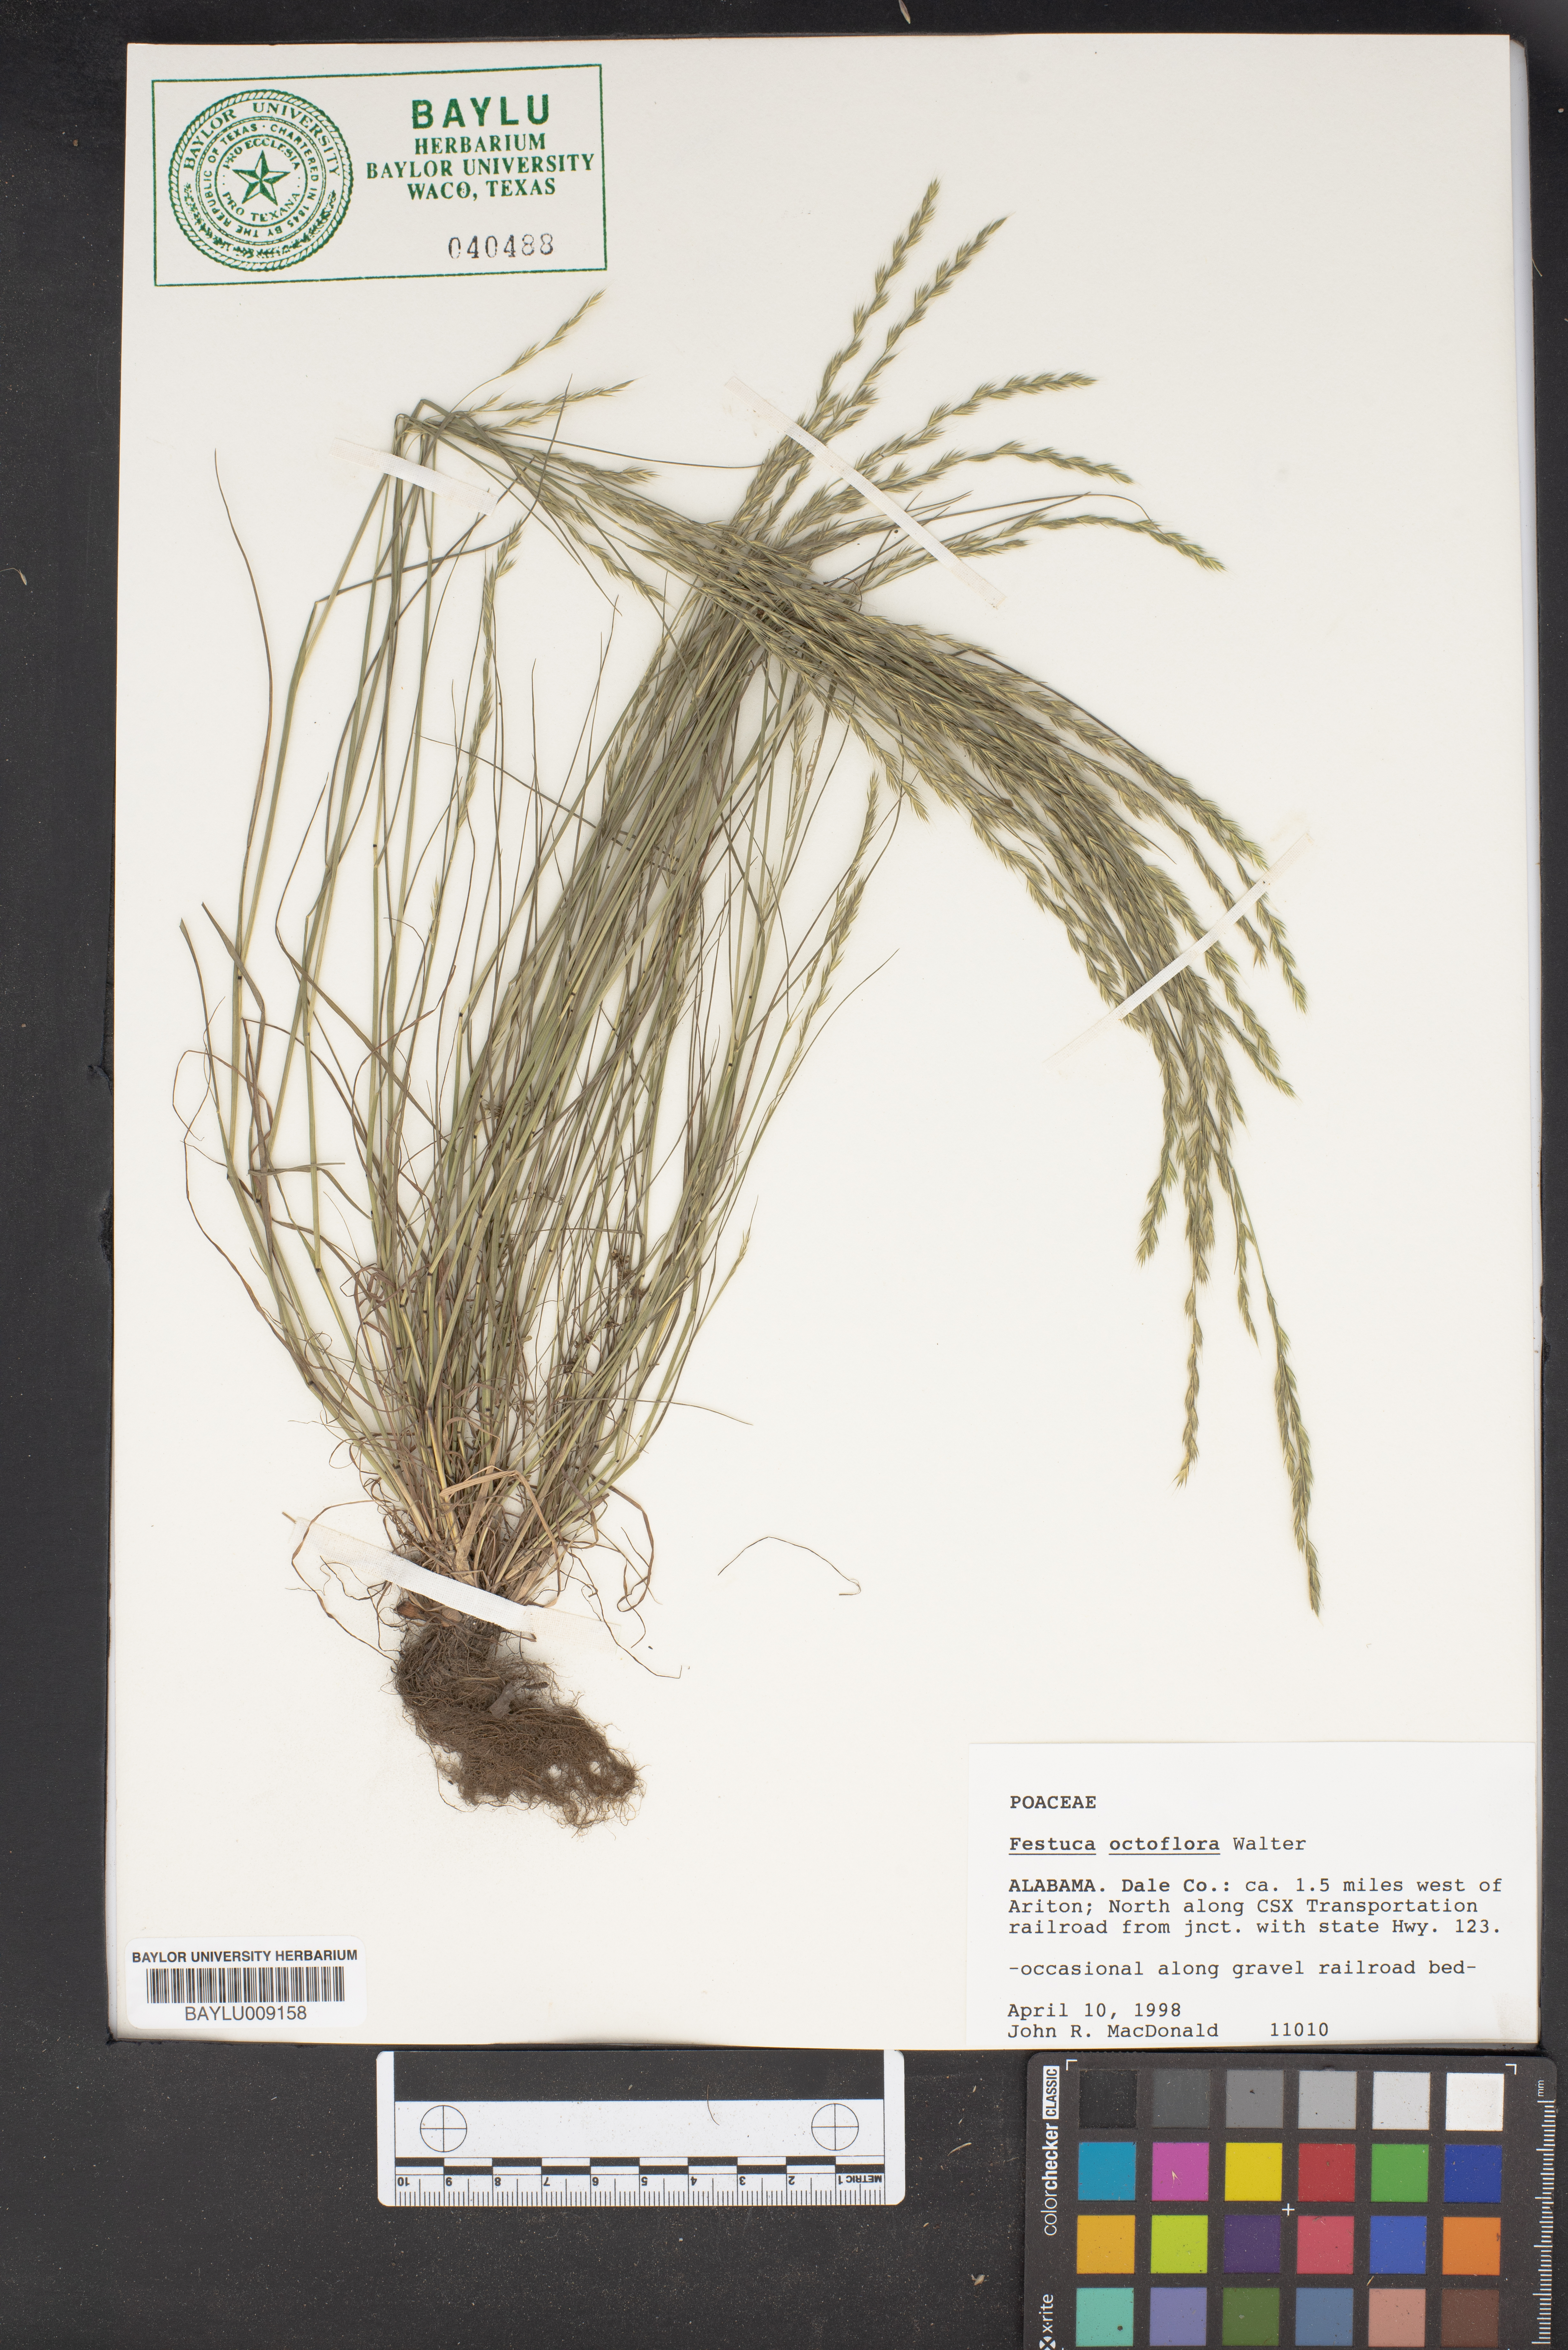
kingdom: Plantae
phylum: Tracheophyta
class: Liliopsida
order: Poales
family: Poaceae
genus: Festuca
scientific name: Festuca octoflora
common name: Sixweeks grass
